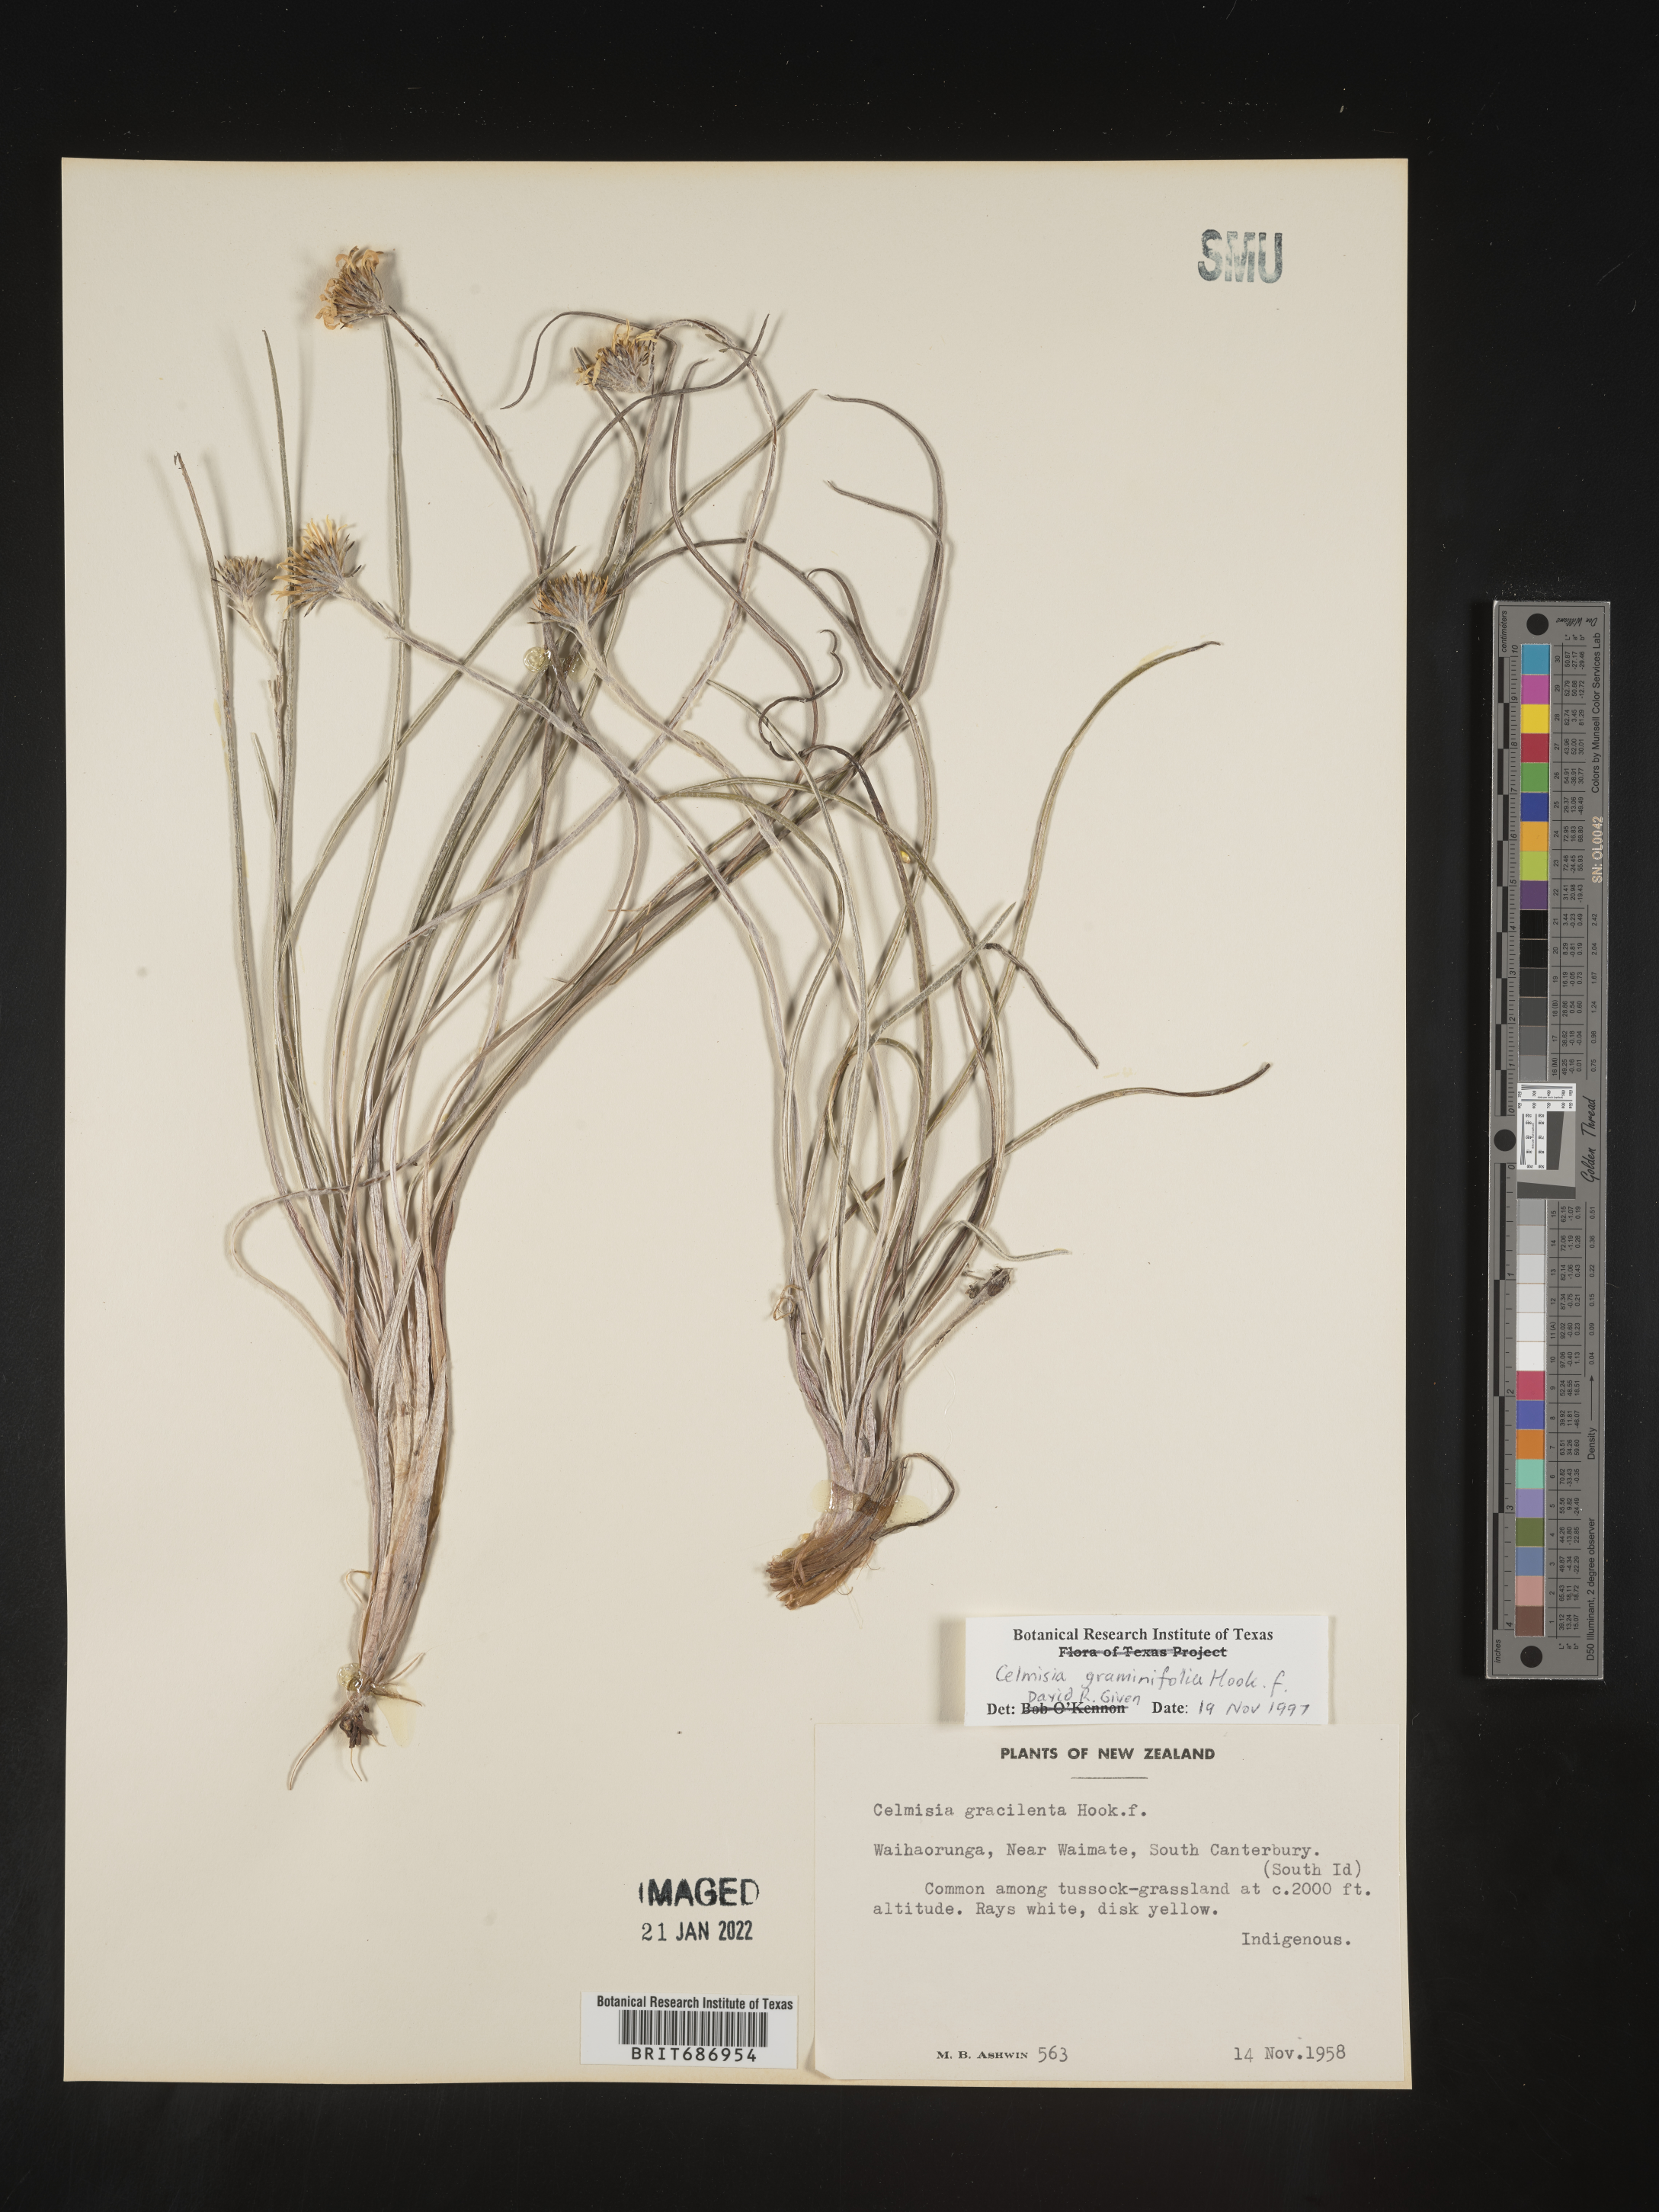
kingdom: Plantae
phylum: Tracheophyta
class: Magnoliopsida
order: Asterales
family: Asteraceae
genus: Celmisia
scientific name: Celmisia
